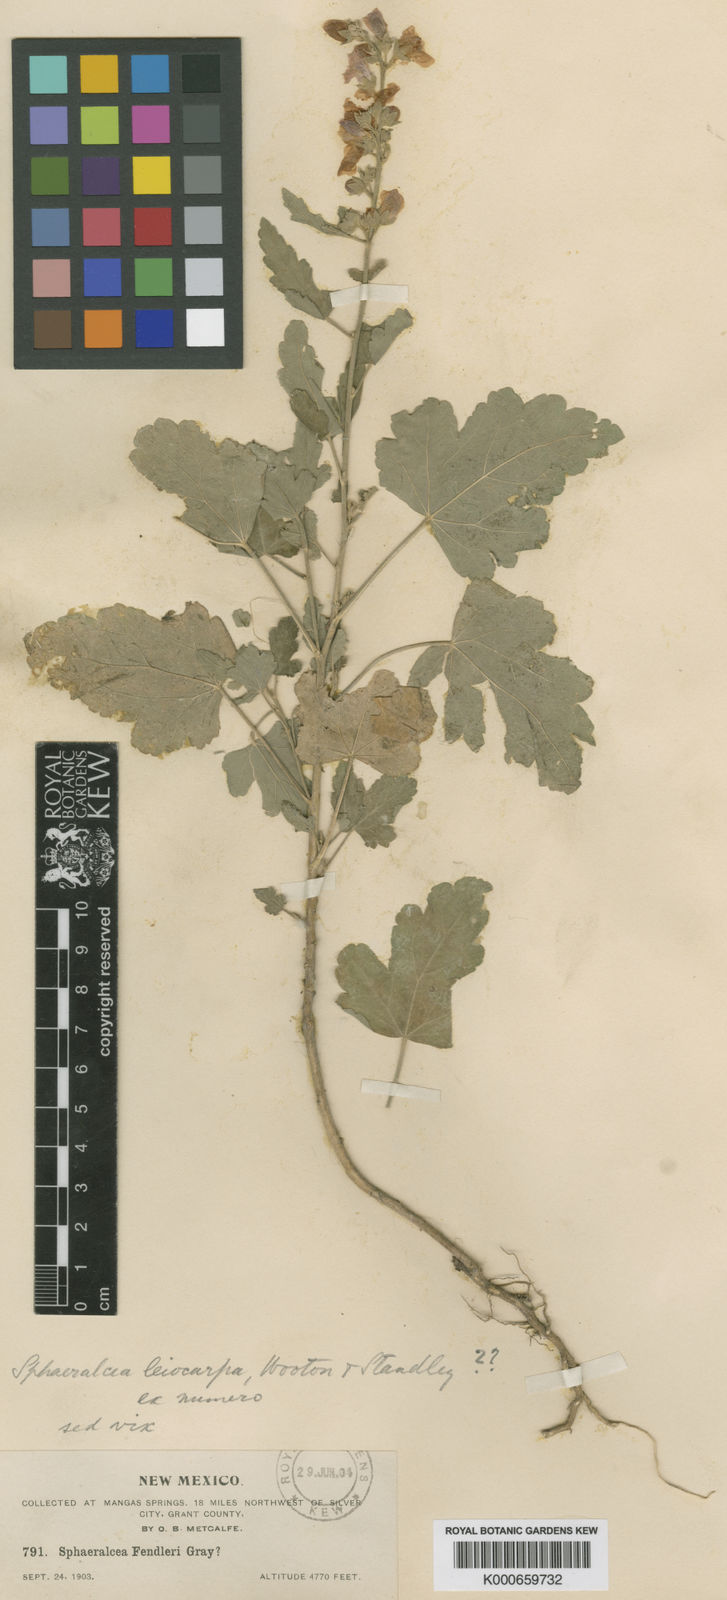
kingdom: Plantae
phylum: Tracheophyta
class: Magnoliopsida
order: Malvales
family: Malvaceae
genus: Sphaeralcea
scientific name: Sphaeralcea fendleri
